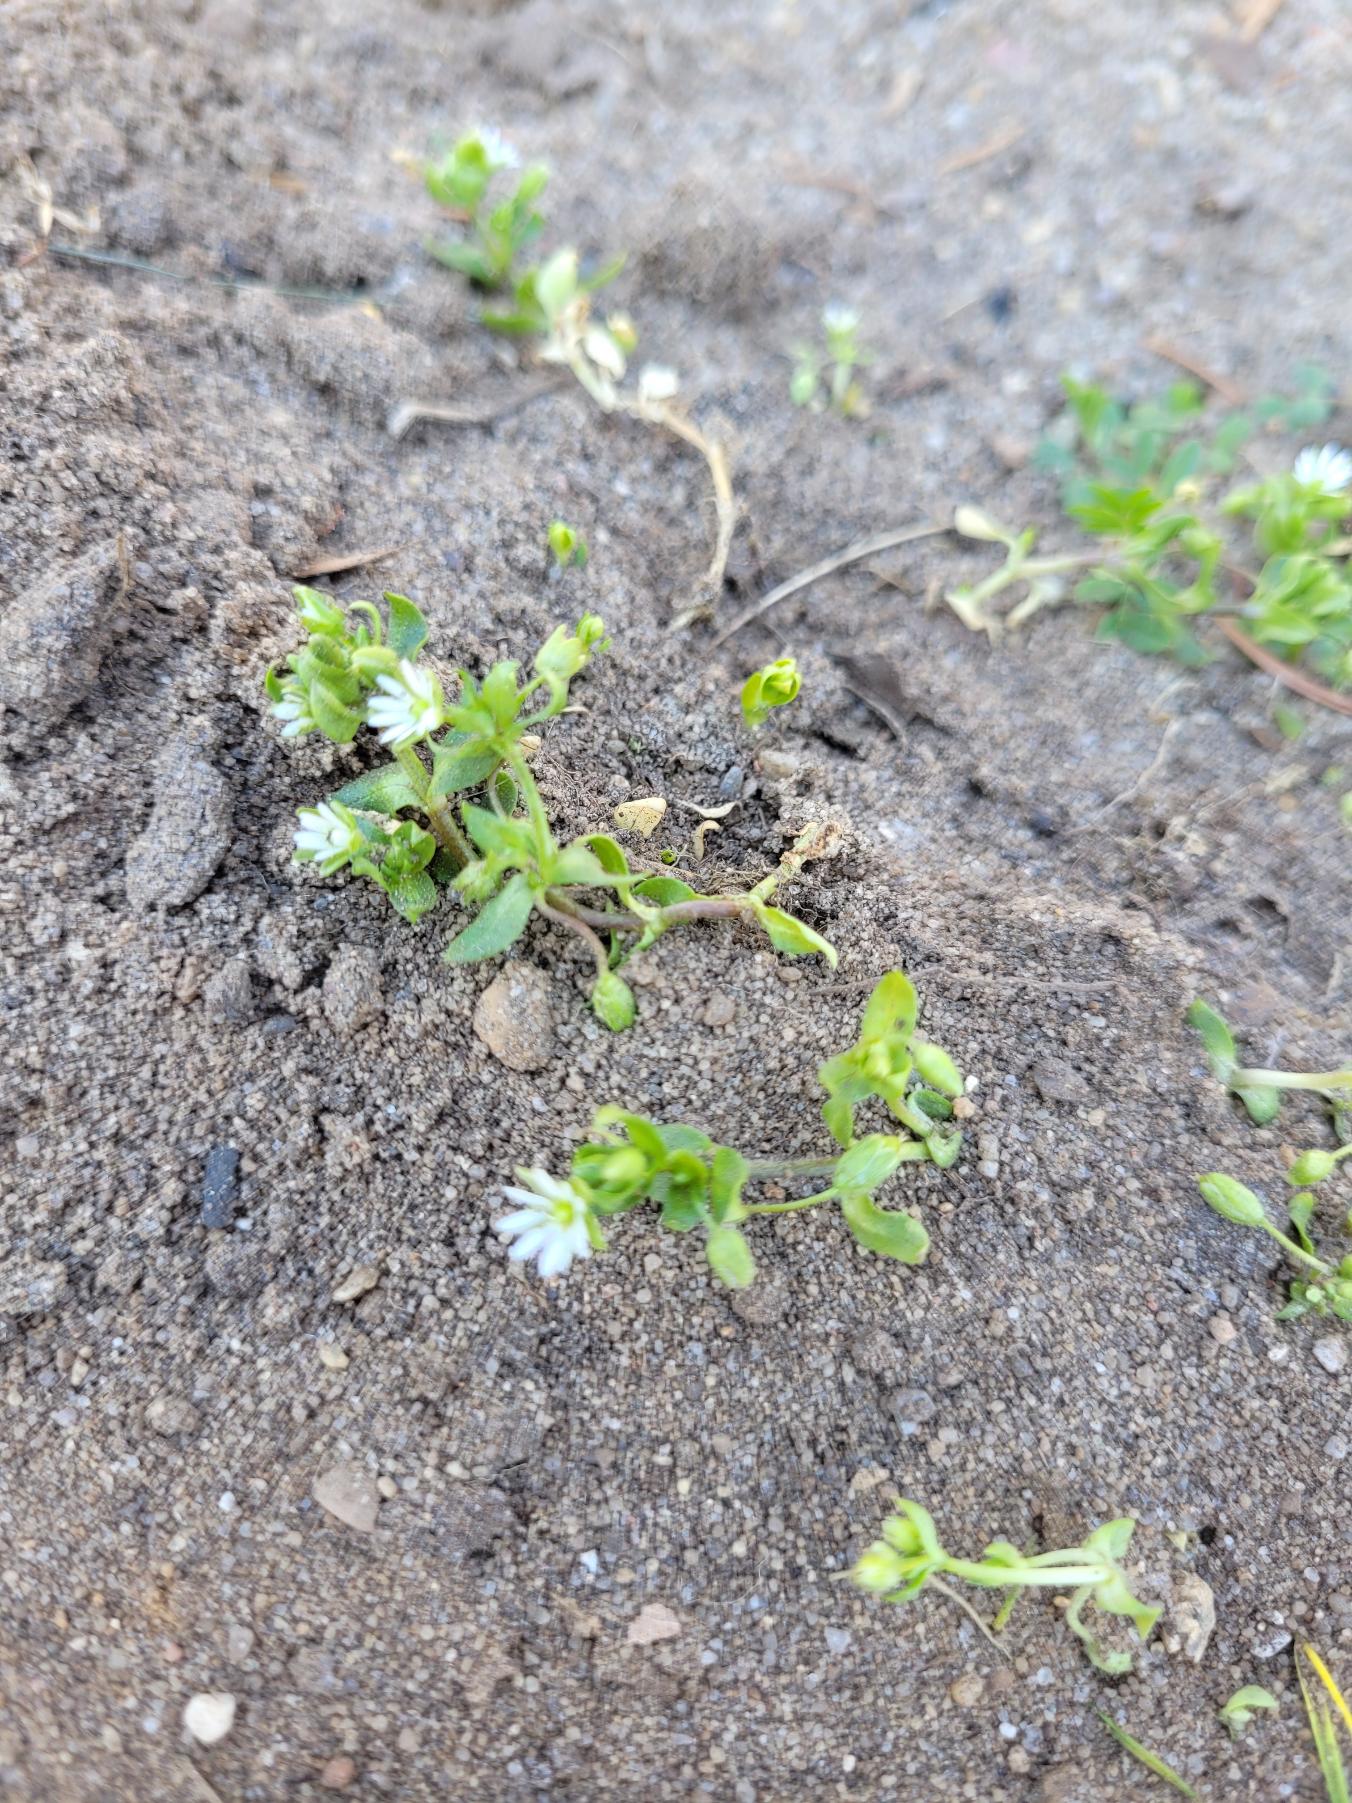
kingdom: Plantae
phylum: Tracheophyta
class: Magnoliopsida
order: Caryophyllales
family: Caryophyllaceae
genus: Stellaria
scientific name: Stellaria media
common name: Almindelig fuglegræs
